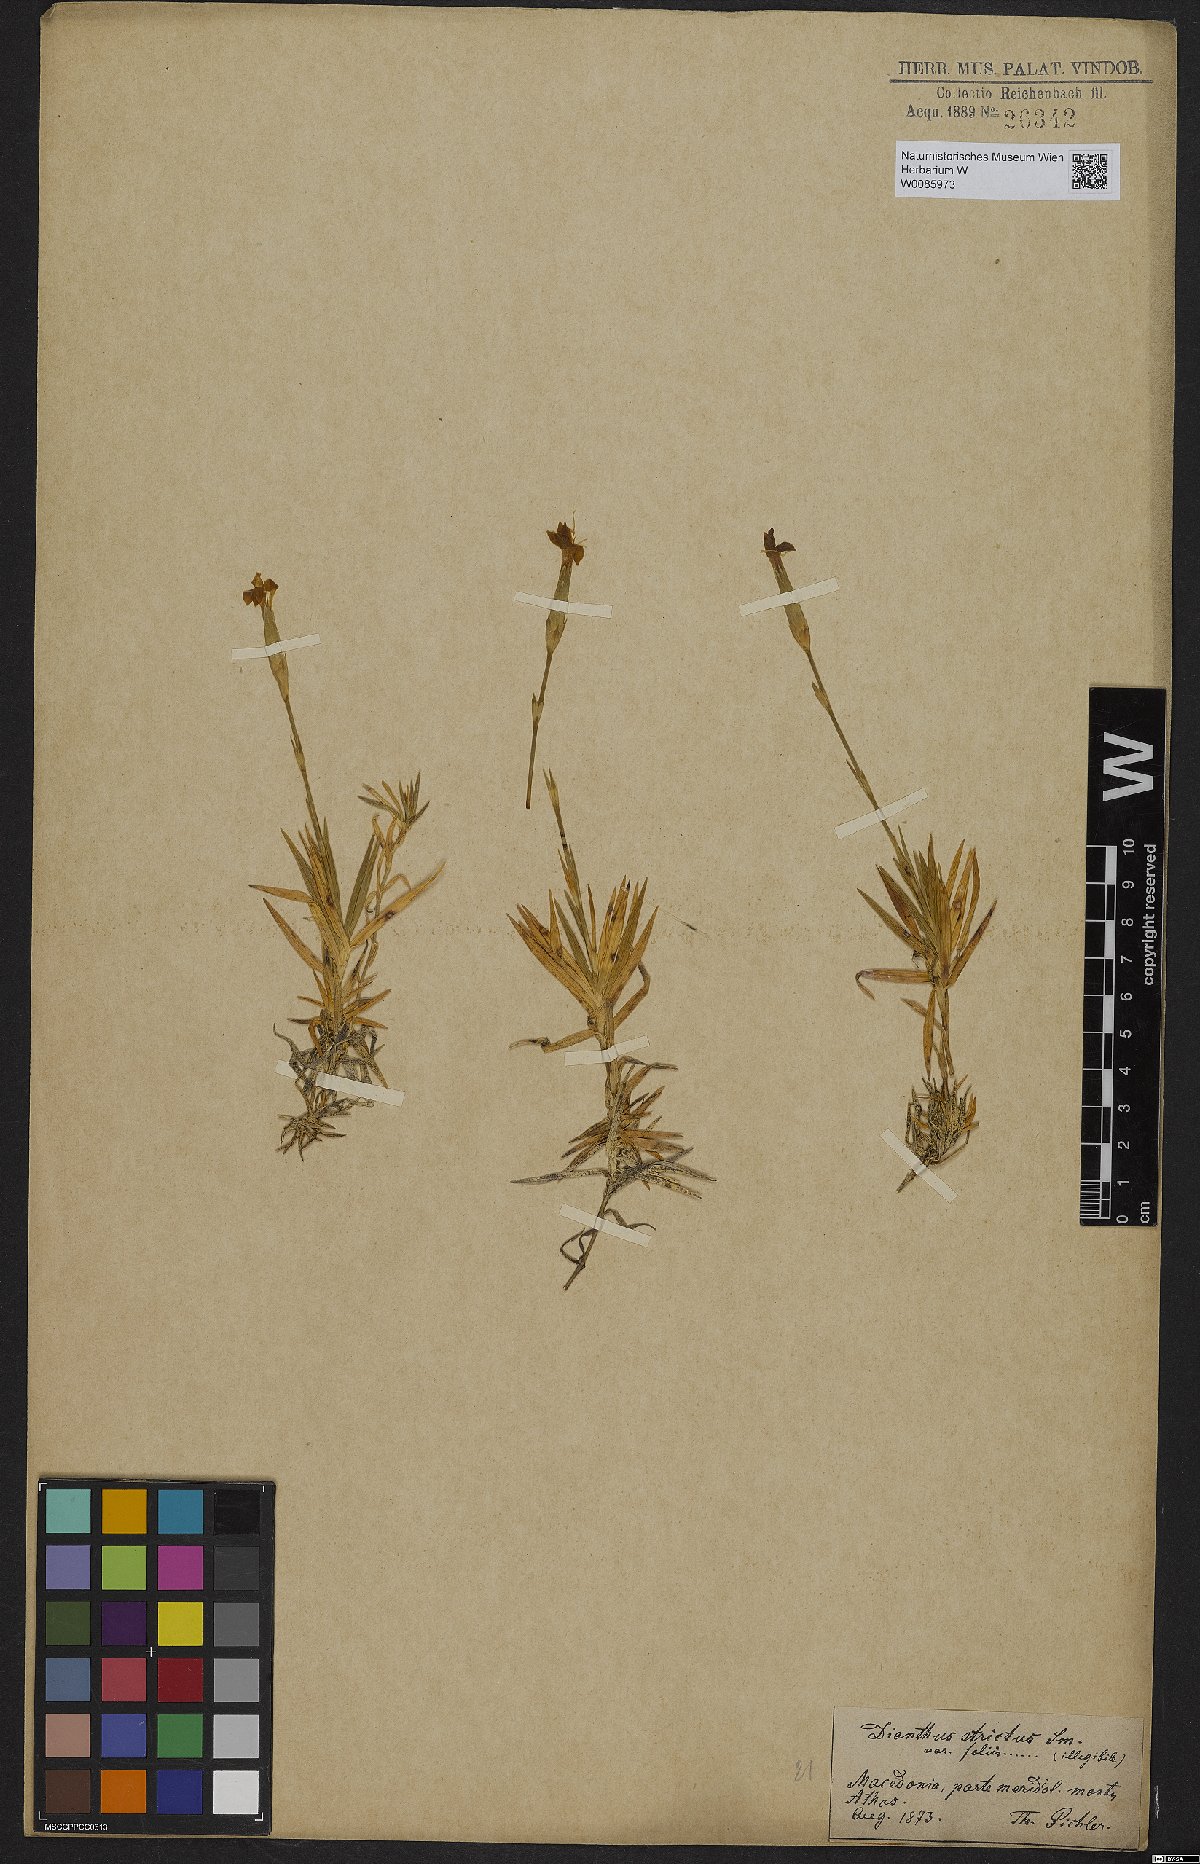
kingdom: Plantae
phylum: Tracheophyta
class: Magnoliopsida
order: Caryophyllales
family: Caryophyllaceae
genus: Dianthus
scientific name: Dianthus petraeus
